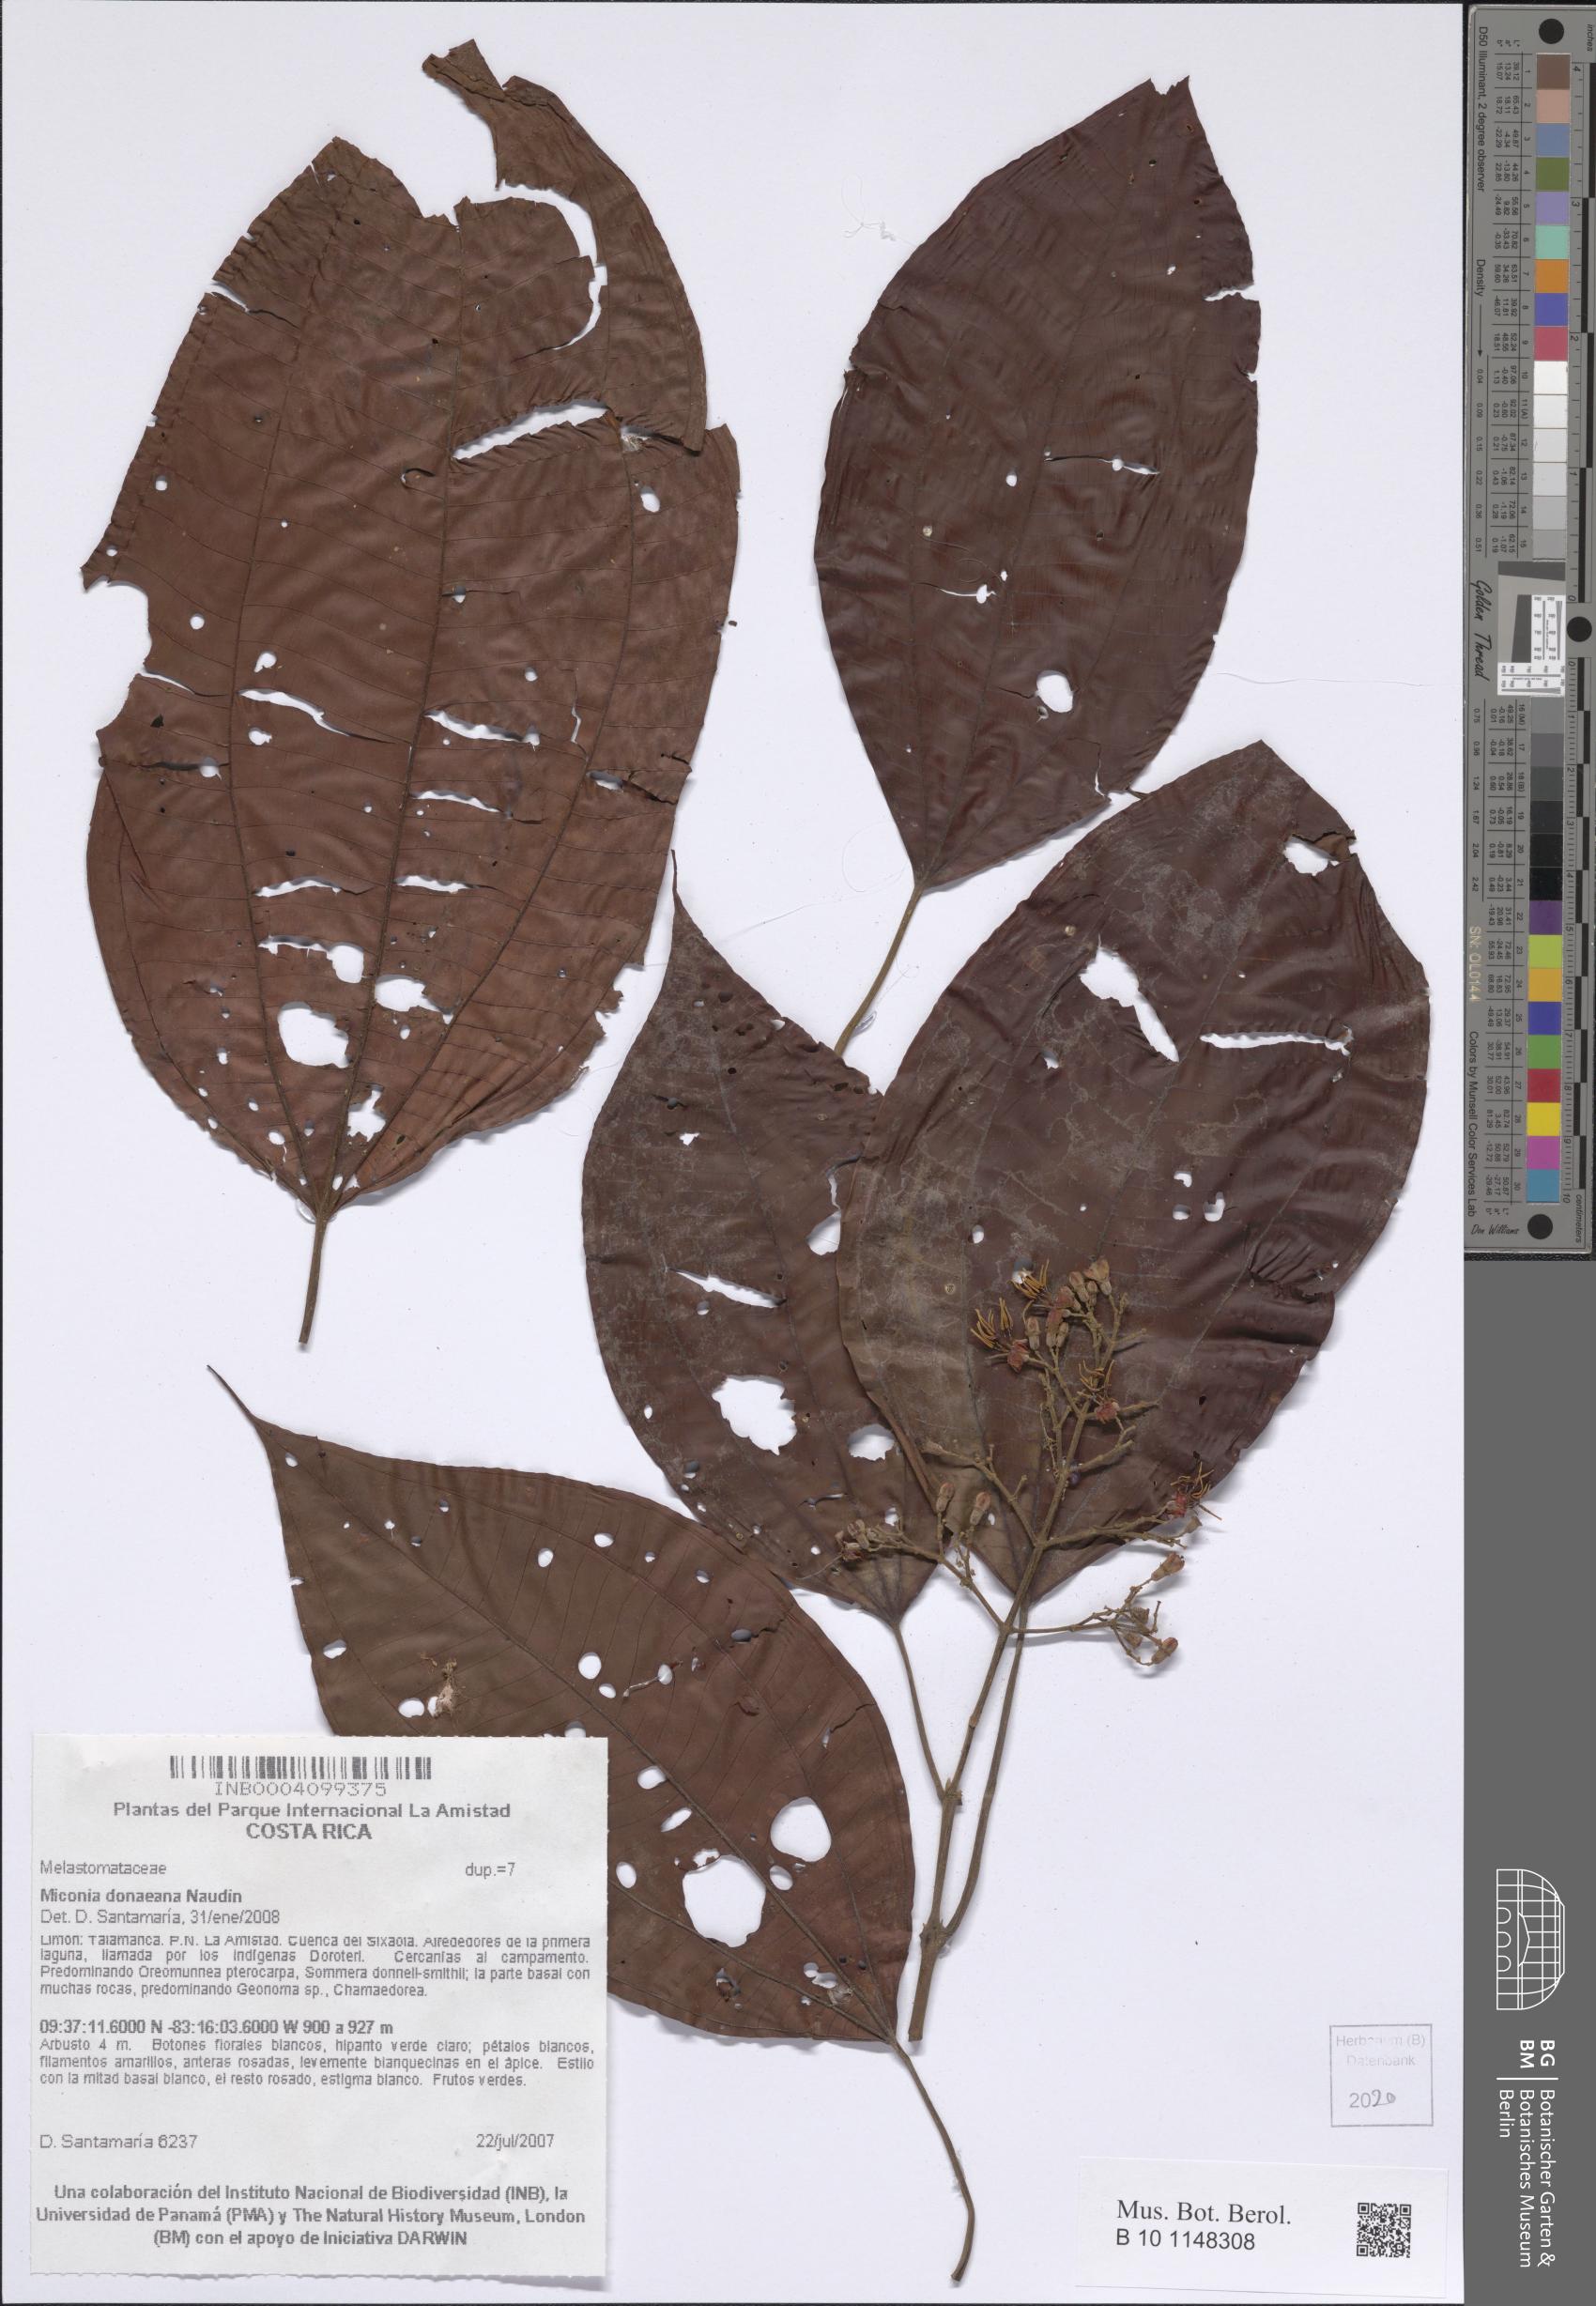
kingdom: Plantae
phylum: Tracheophyta
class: Magnoliopsida
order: Myrtales
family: Melastomataceae
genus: Miconia
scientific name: Miconia donaeana
